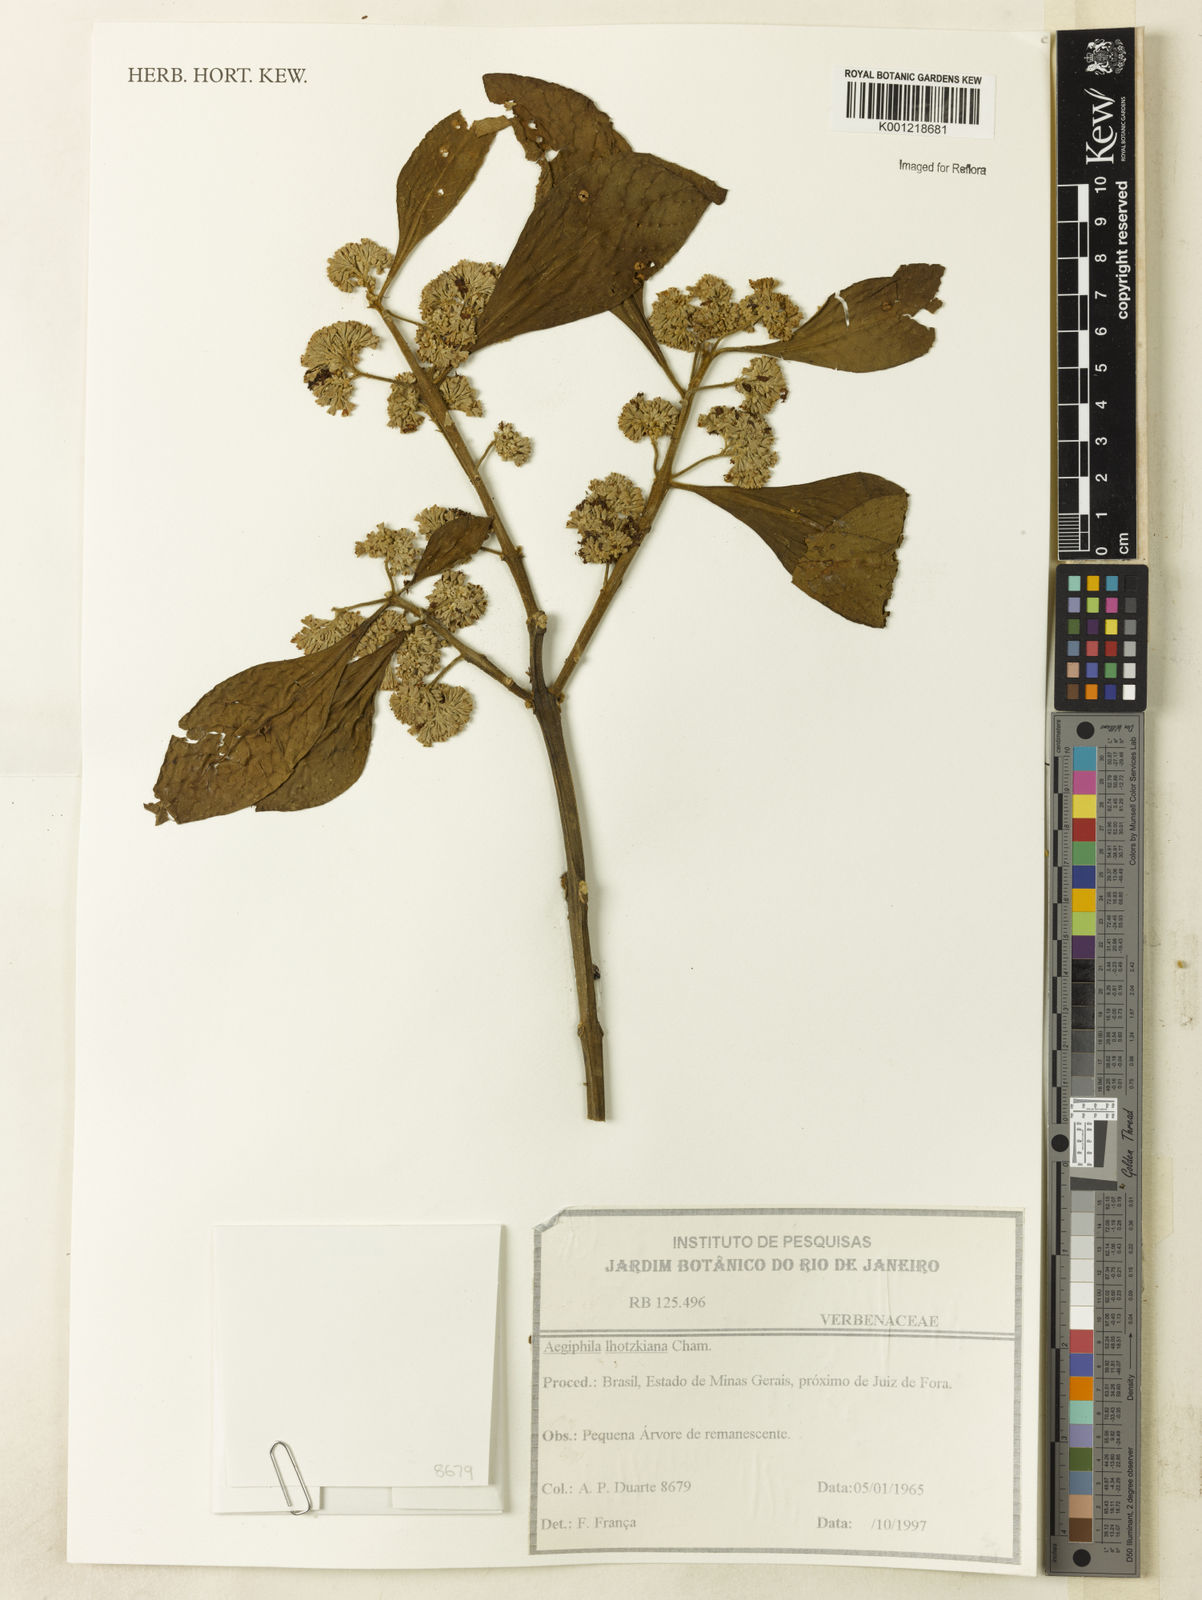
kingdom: Plantae
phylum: Tracheophyta
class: Magnoliopsida
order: Lamiales
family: Lamiaceae
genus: Aegiphila
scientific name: Aegiphila verticillata
